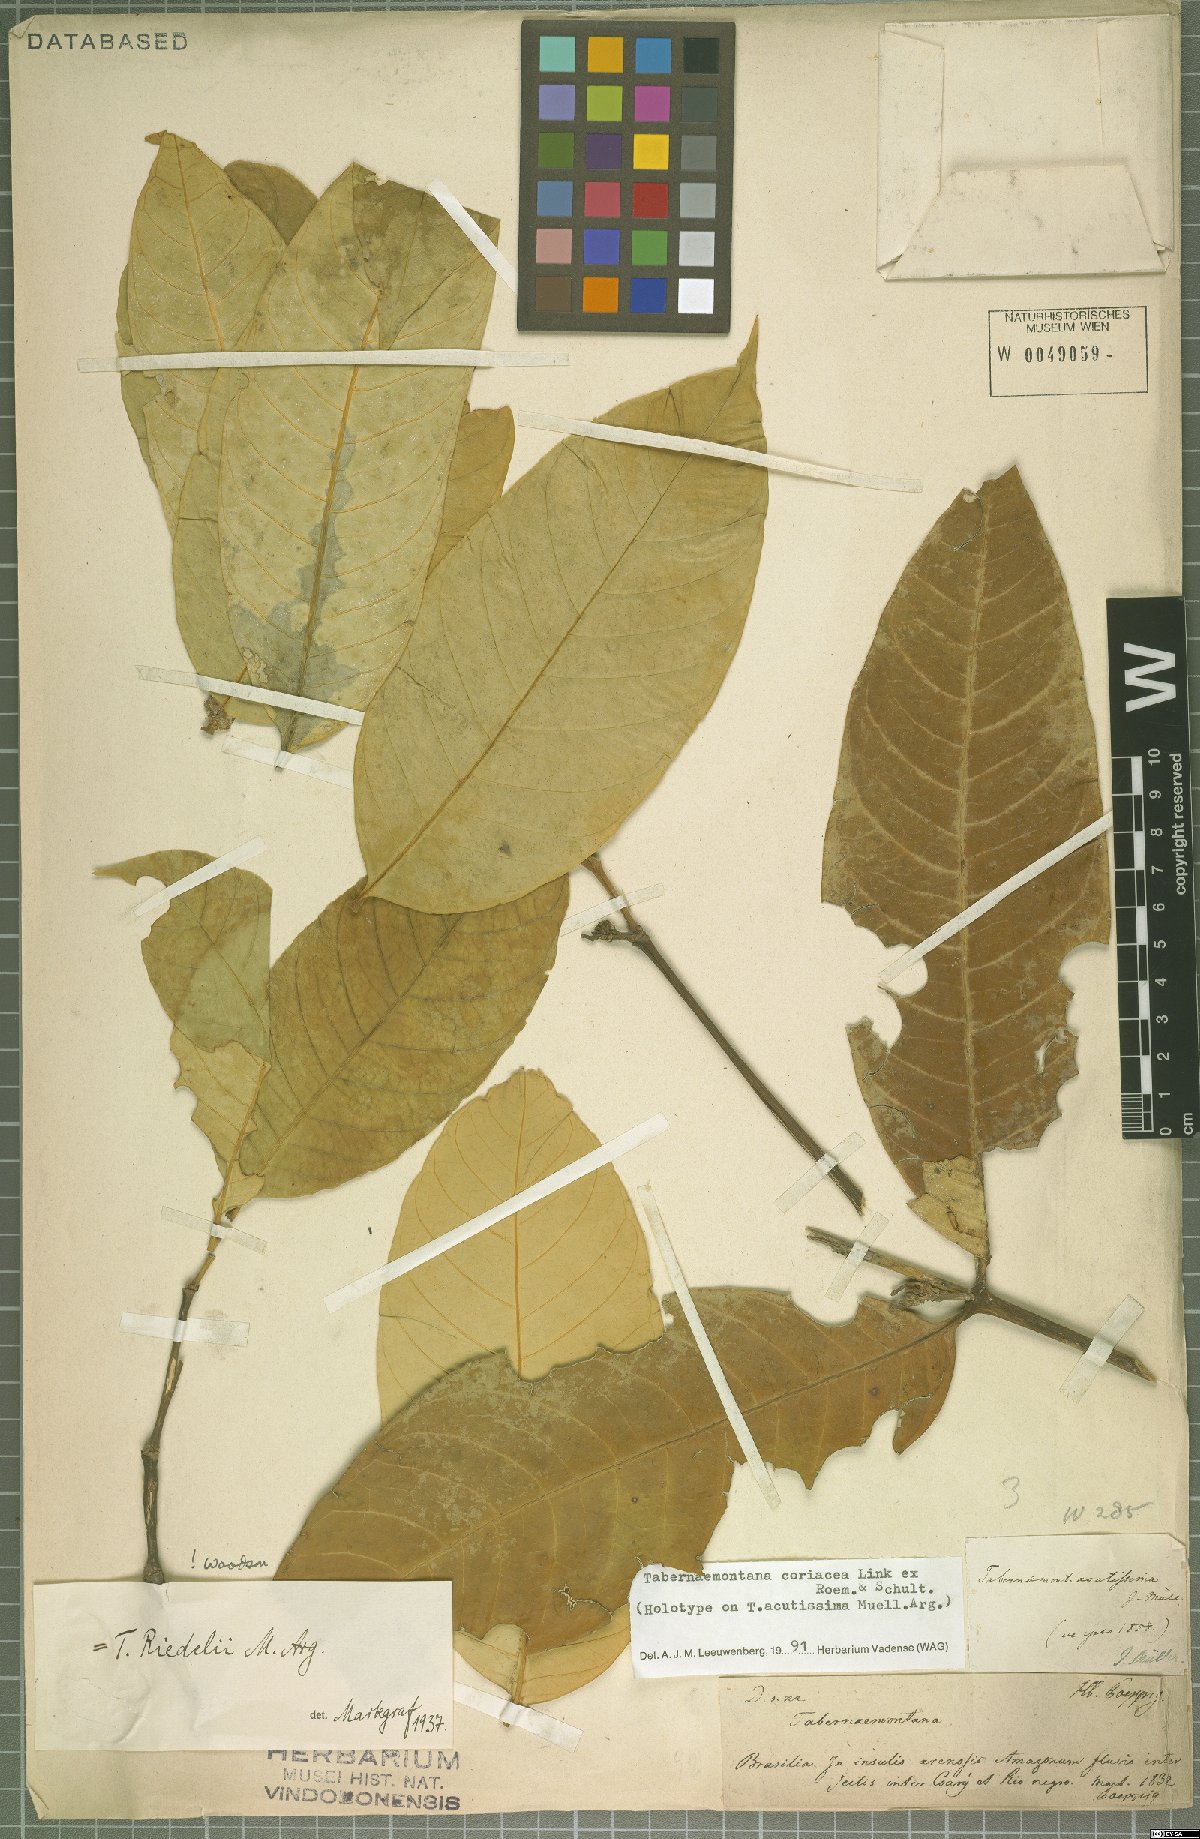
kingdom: Plantae
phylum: Tracheophyta
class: Magnoliopsida
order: Gentianales
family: Apocynaceae
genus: Tabernaemontana
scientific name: Tabernaemontana coriacea
